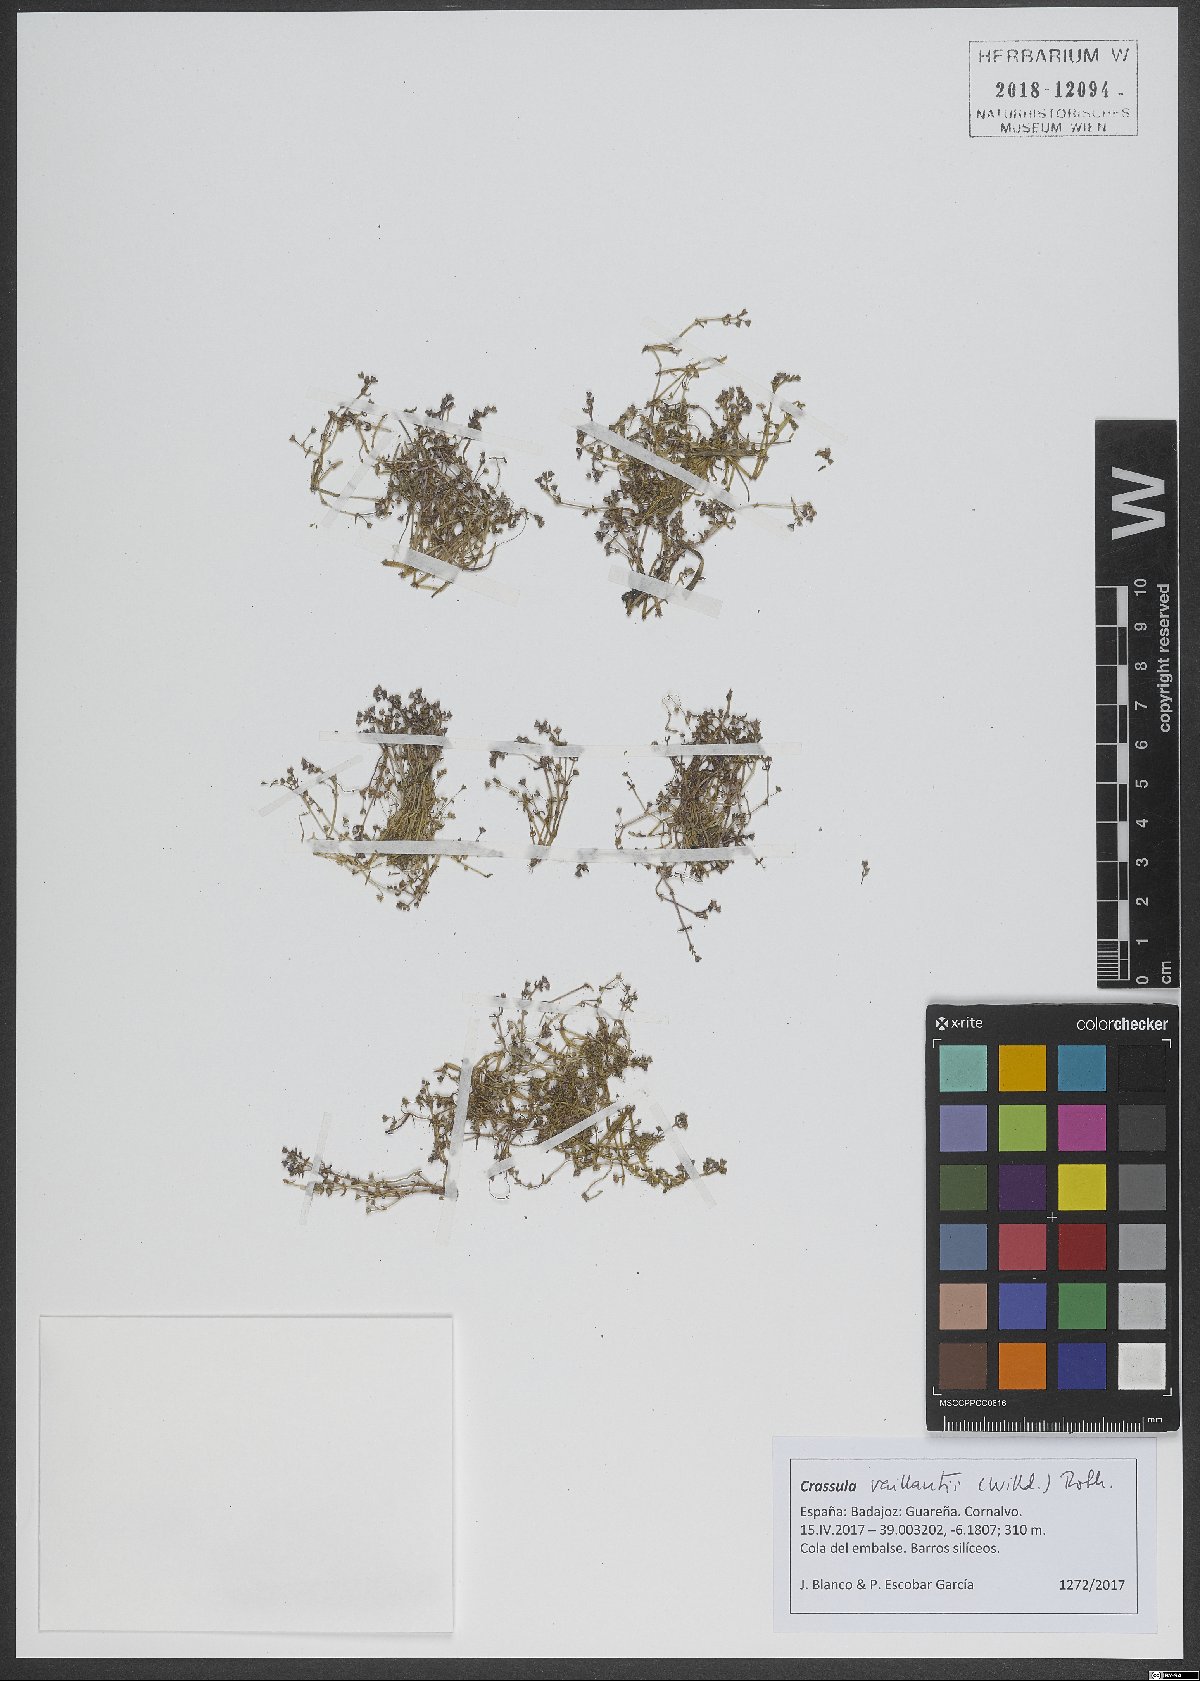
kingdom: Plantae
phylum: Tracheophyta
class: Magnoliopsida
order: Saxifragales
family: Crassulaceae
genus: Crassula
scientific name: Crassula vaillantii
